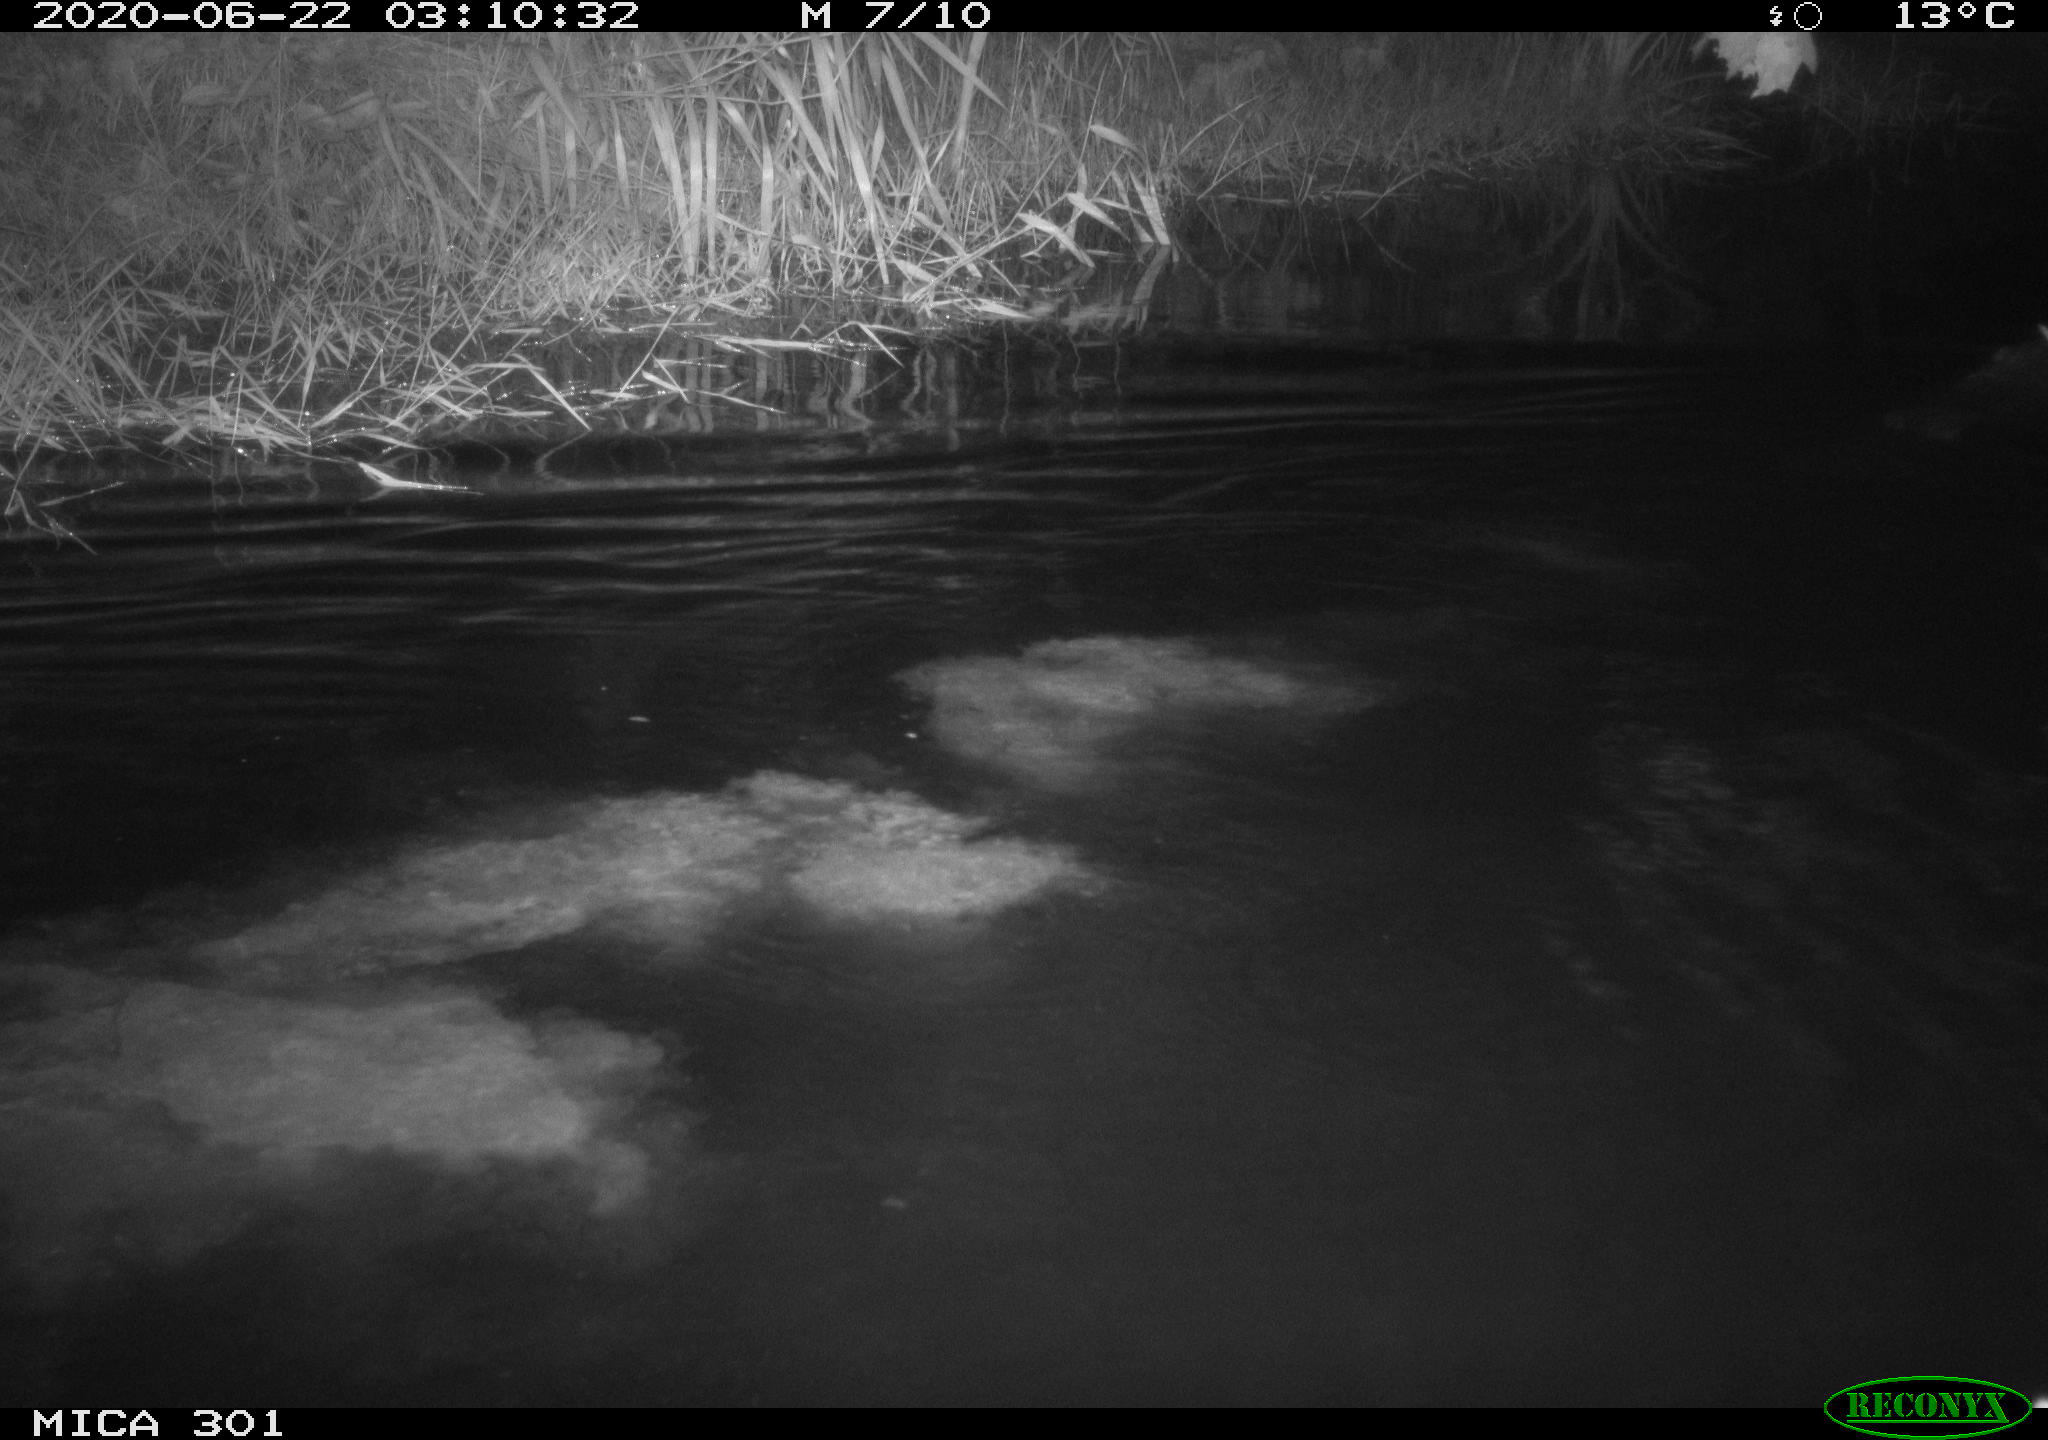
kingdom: Animalia
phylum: Chordata
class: Mammalia
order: Rodentia
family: Castoridae
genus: Castor
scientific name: Castor fiber
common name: Eurasian beaver
